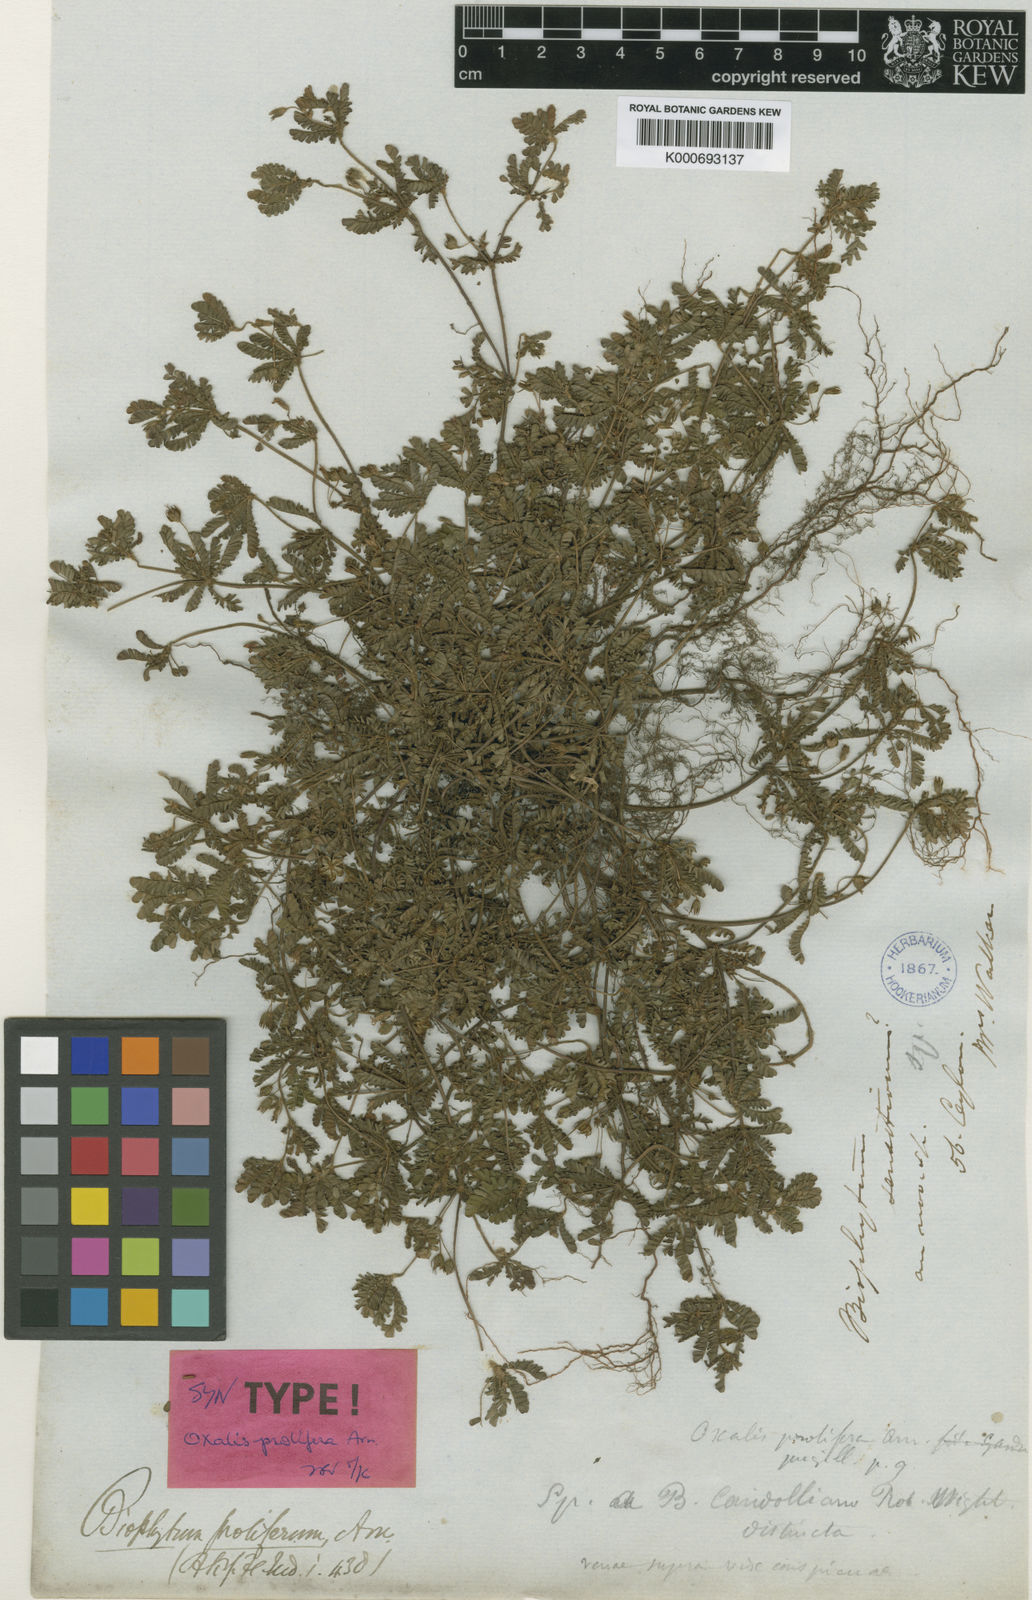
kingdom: Plantae
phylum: Tracheophyta
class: Magnoliopsida
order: Oxalidales
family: Oxalidaceae
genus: Biophytum
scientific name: Biophytum
